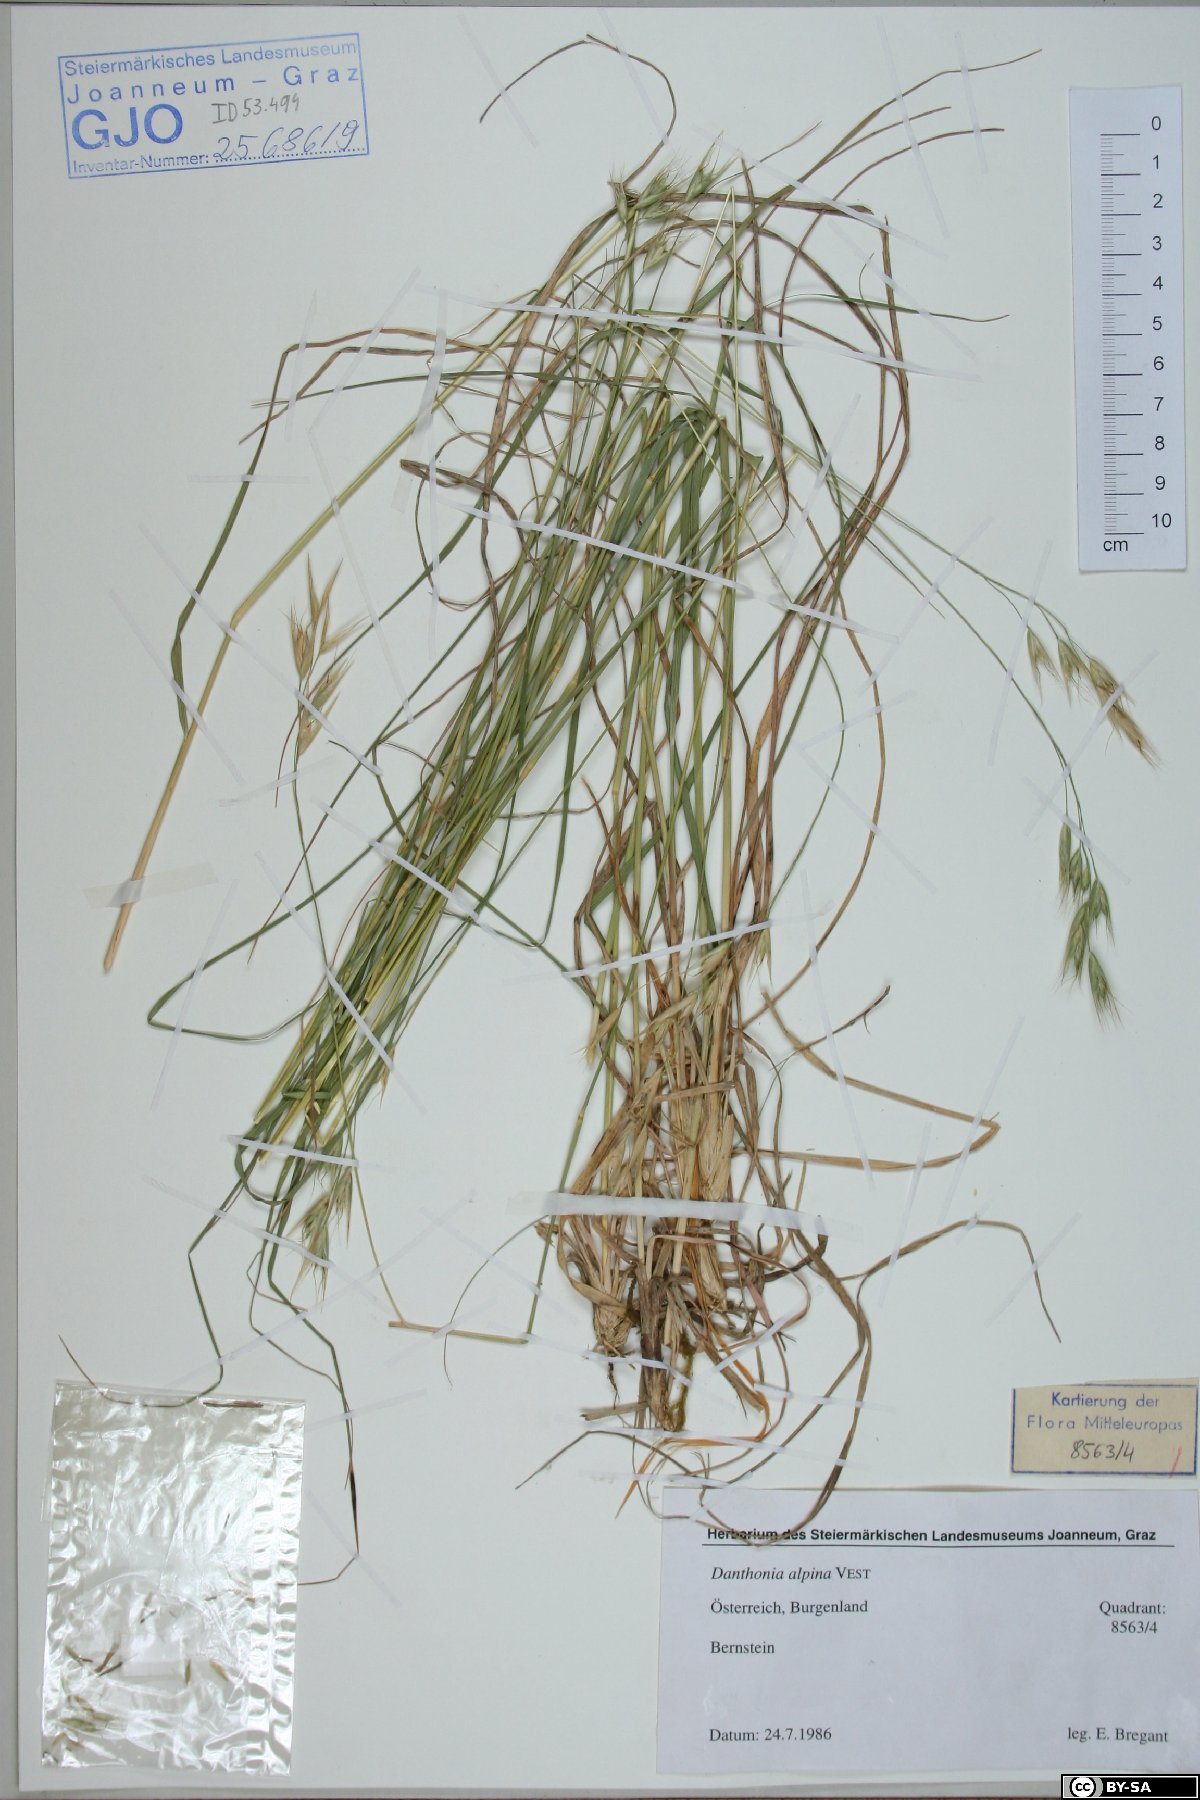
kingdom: Plantae
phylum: Tracheophyta
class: Liliopsida
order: Poales
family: Poaceae
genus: Danthonia
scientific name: Danthonia alpina
